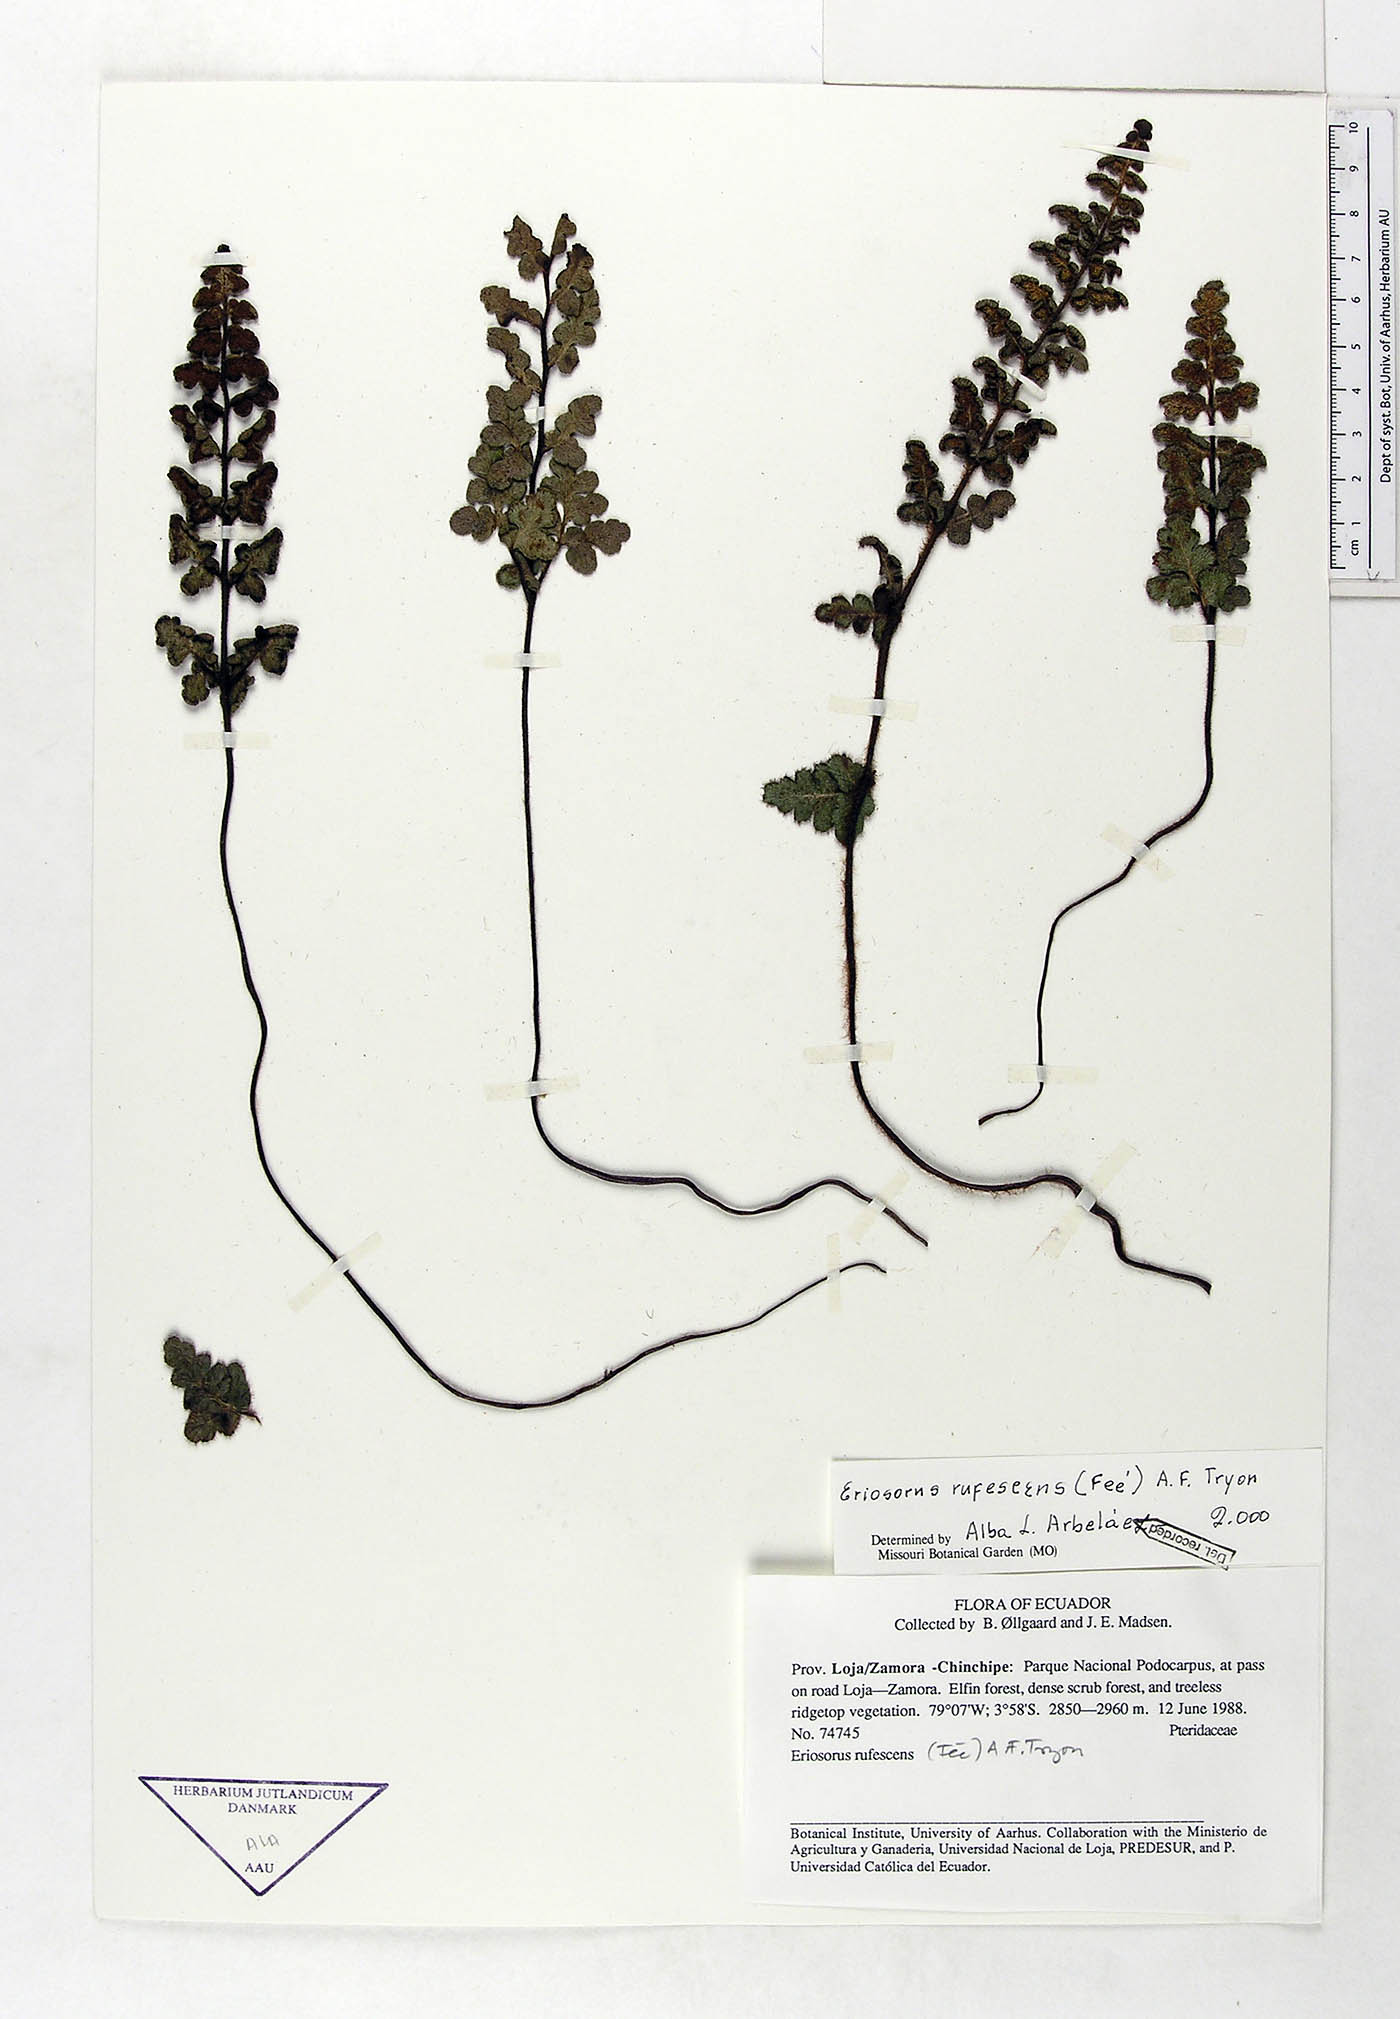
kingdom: Plantae
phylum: Tracheophyta
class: Polypodiopsida
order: Polypodiales
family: Pteridaceae
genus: Jamesonia
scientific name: Jamesonia rufescens
